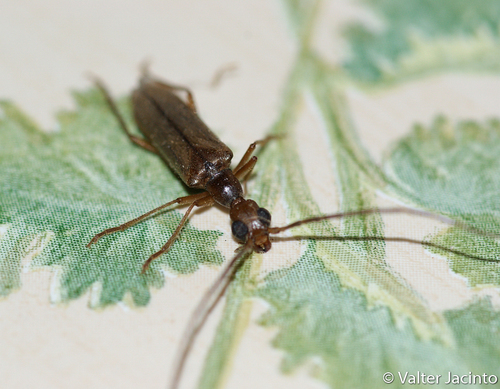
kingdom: Animalia
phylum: Arthropoda
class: Insecta
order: Coleoptera
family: Cerambycidae
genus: Vesperus
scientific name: Vesperus
